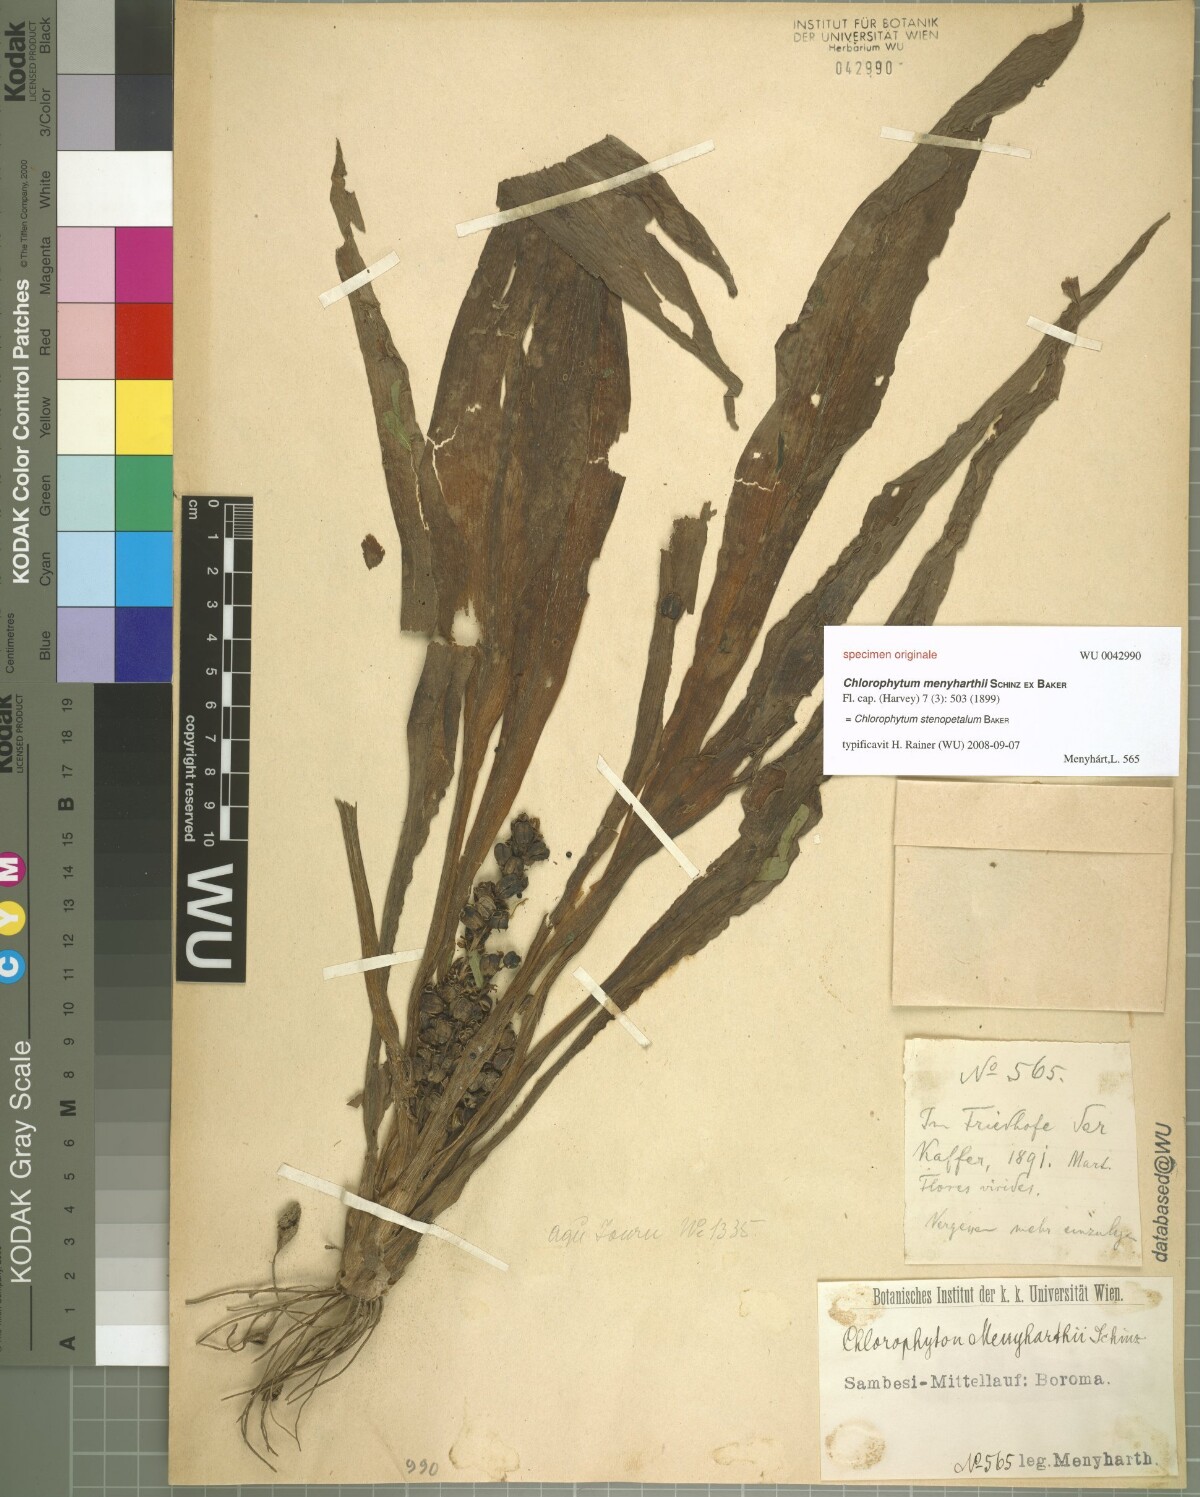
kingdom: Plantae
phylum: Tracheophyta
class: Liliopsida
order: Asparagales
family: Asparagaceae
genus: Chlorophytum
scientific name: Chlorophytum stenopetalum
